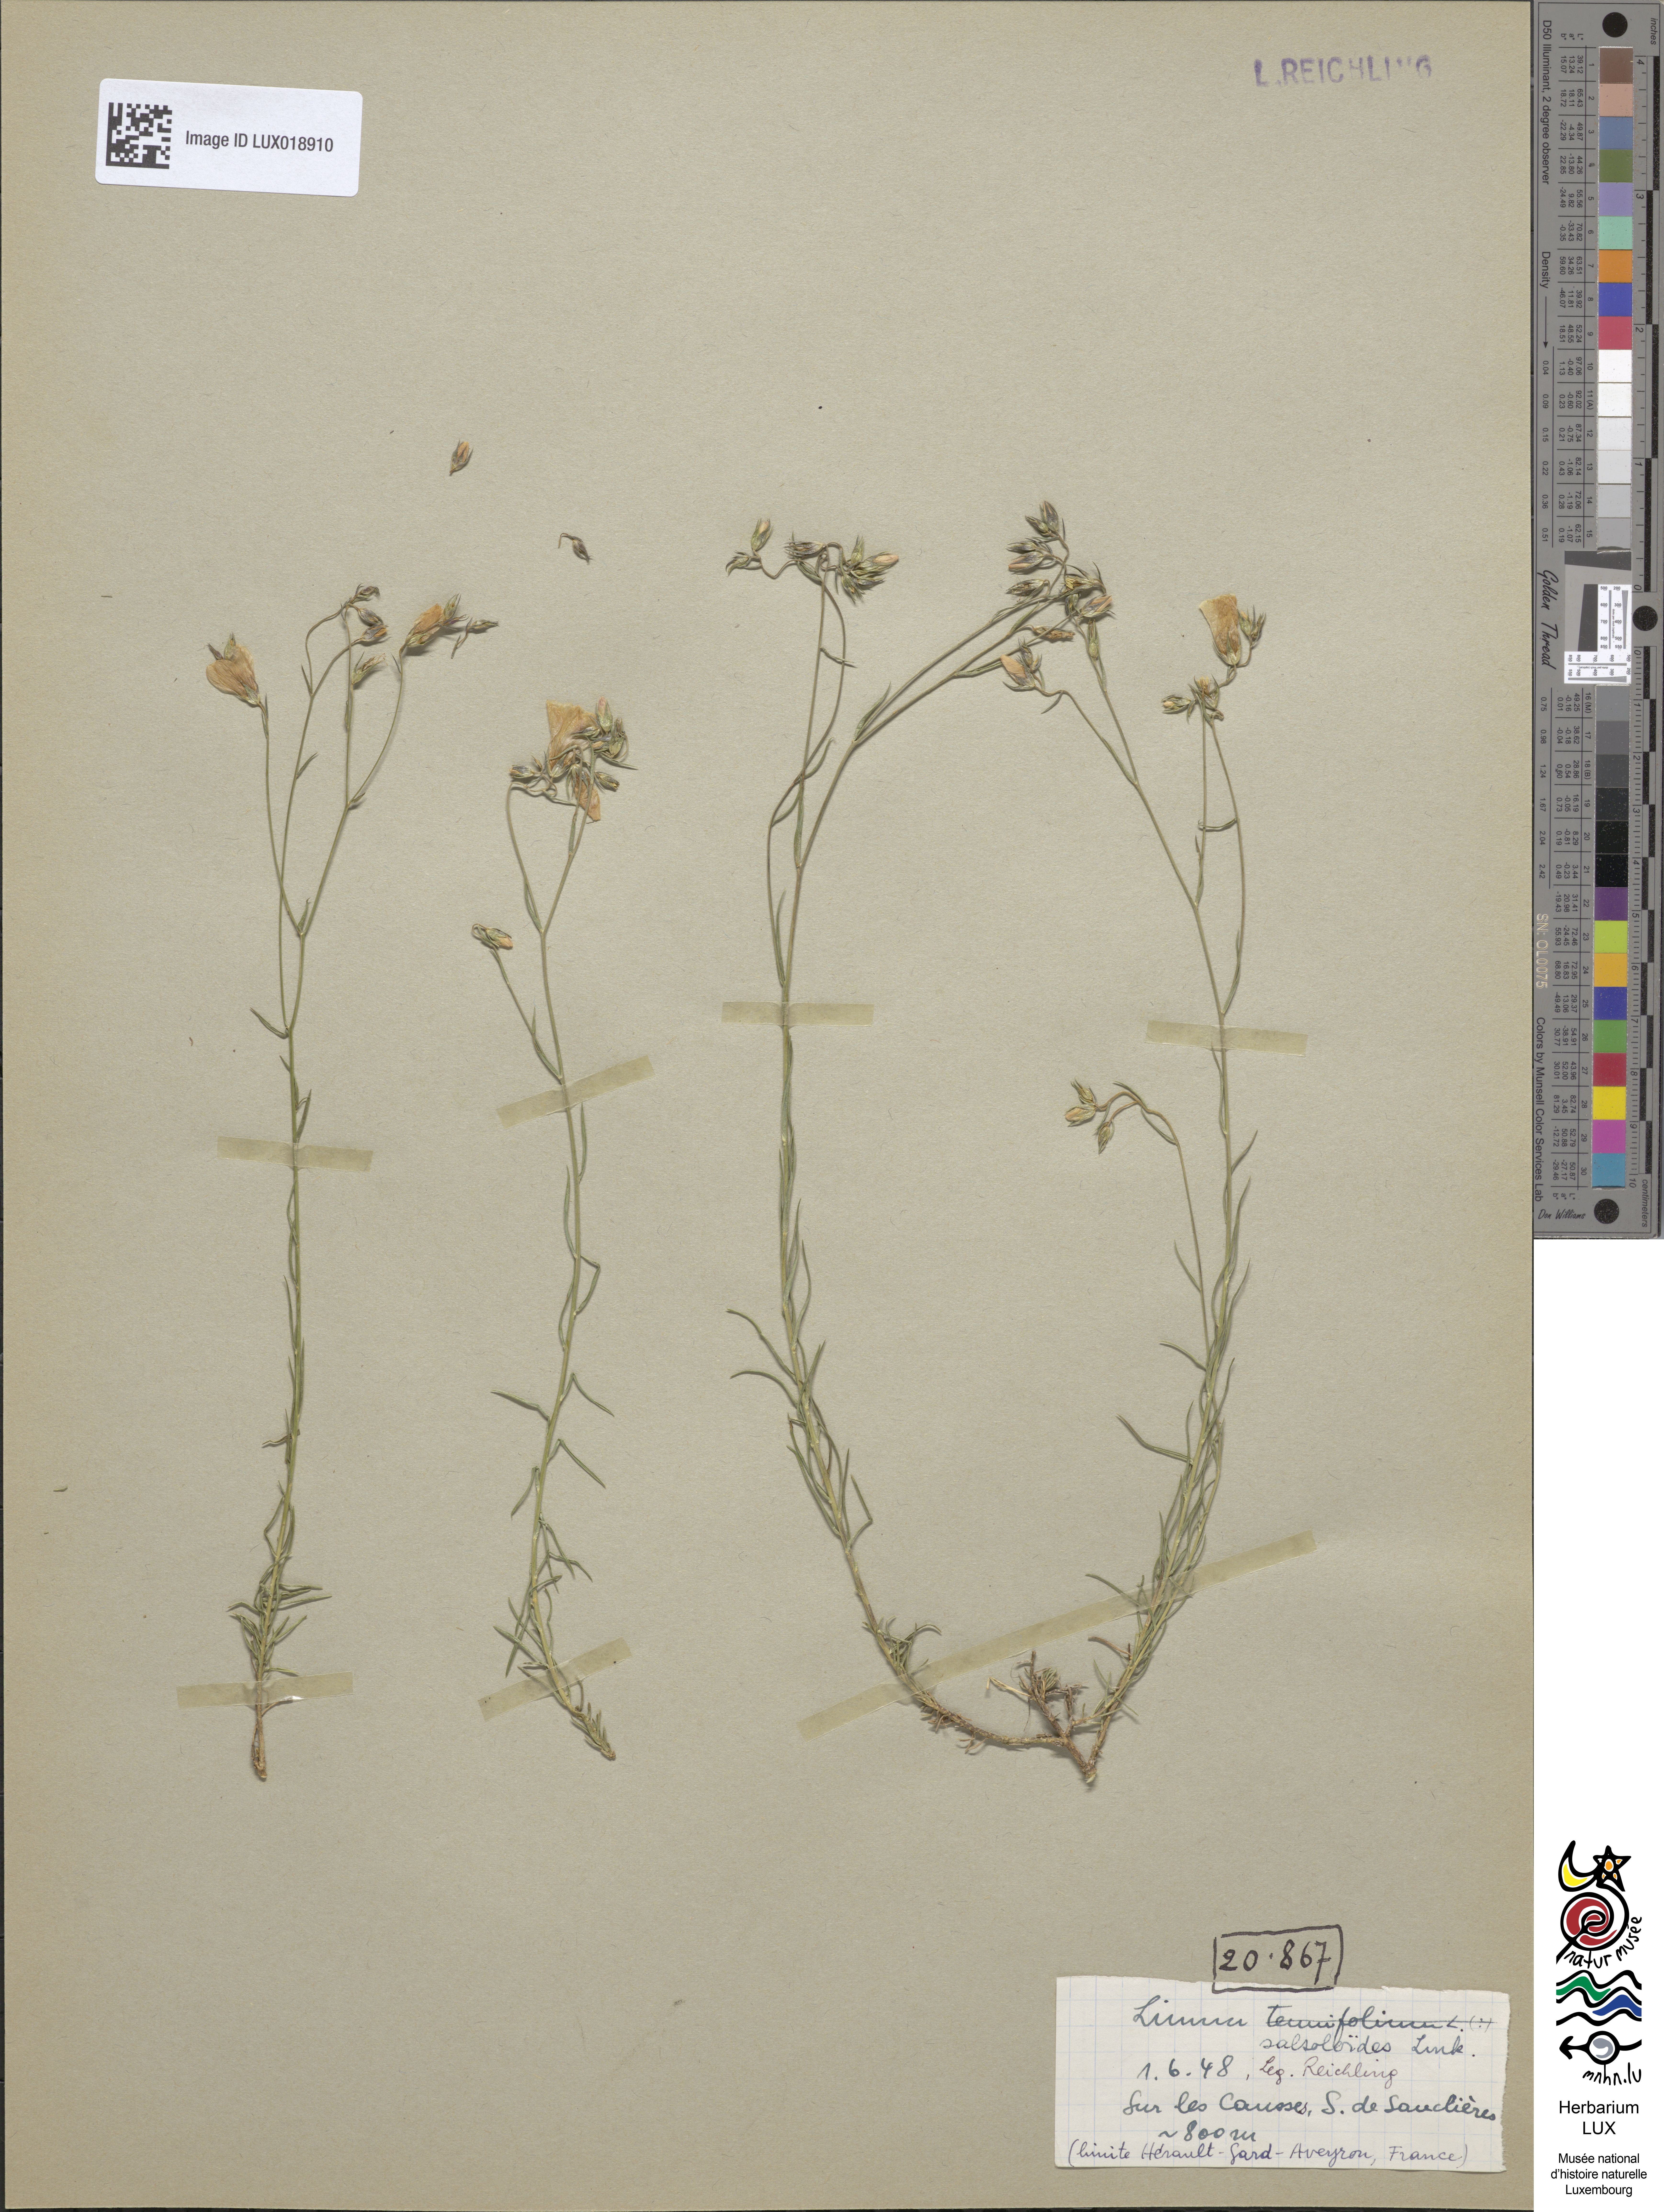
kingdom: Plantae
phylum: Tracheophyta
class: Magnoliopsida
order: Malpighiales
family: Linaceae
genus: Linum
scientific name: Linum salsoloides
